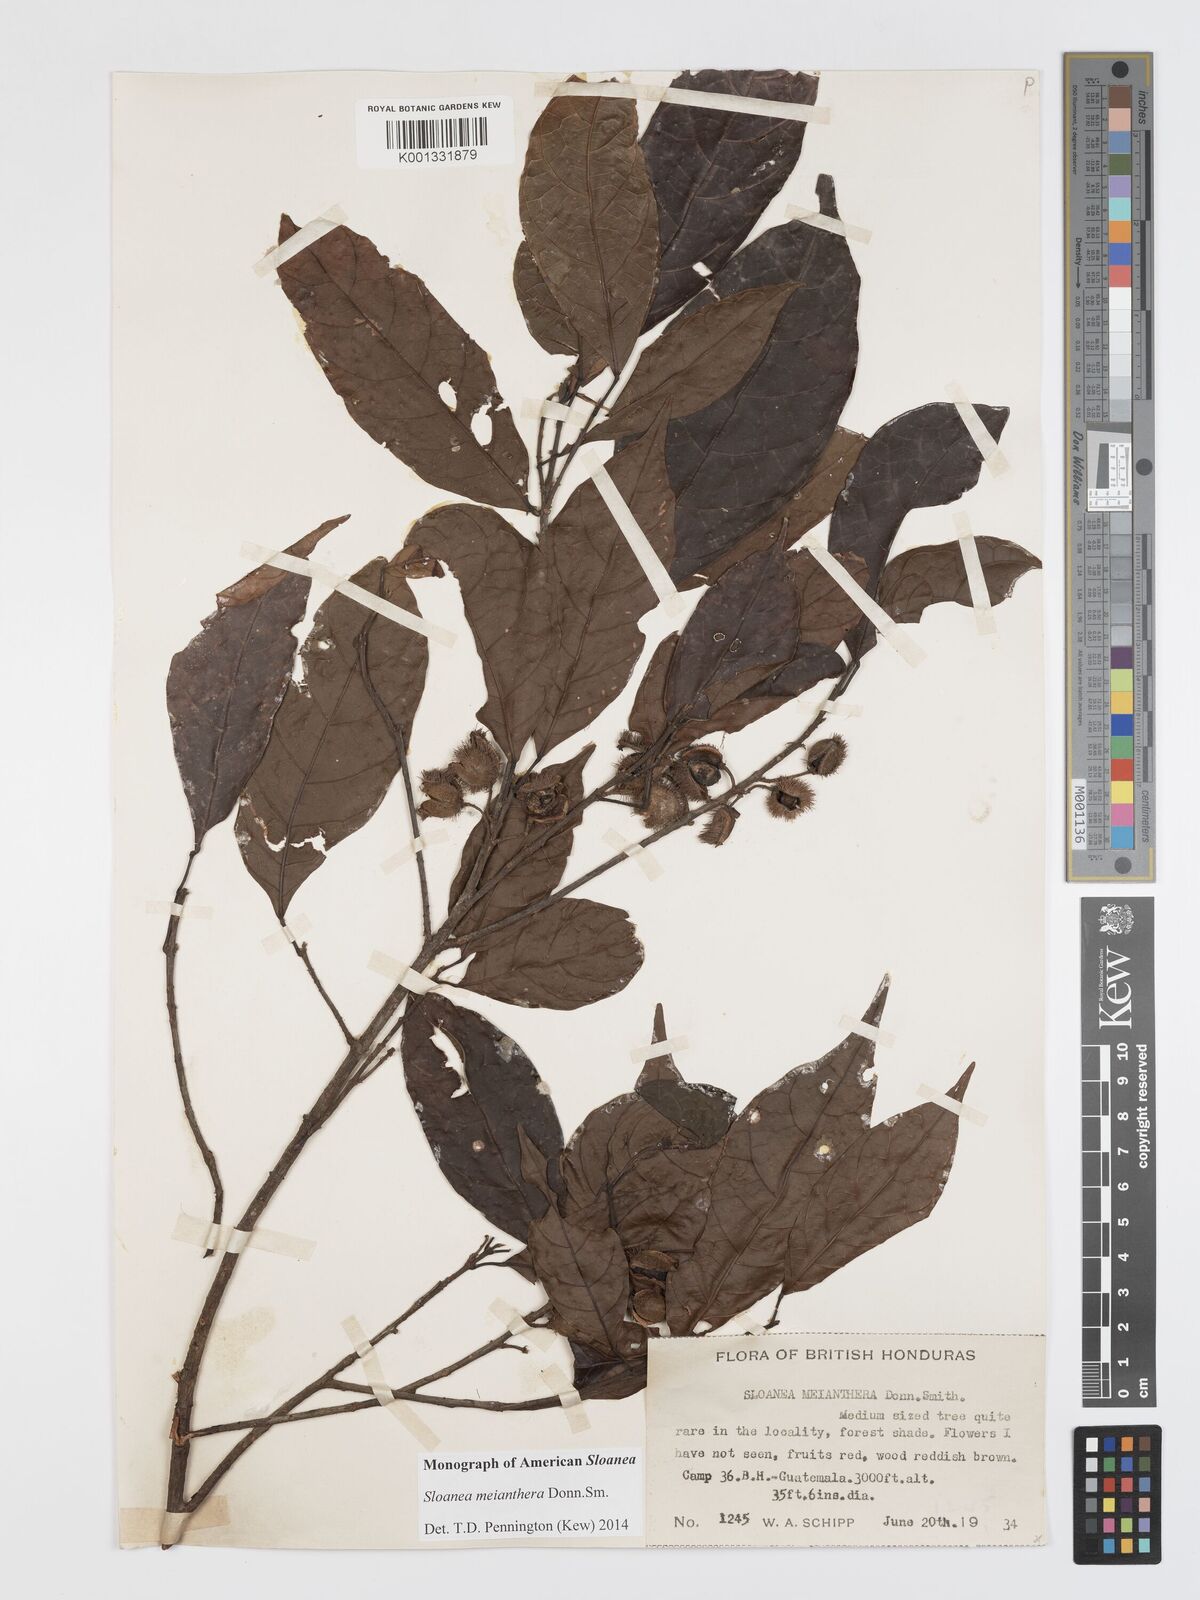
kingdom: Plantae
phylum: Tracheophyta
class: Magnoliopsida
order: Oxalidales
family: Elaeocarpaceae
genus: Sloanea
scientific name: Sloanea meianthera
